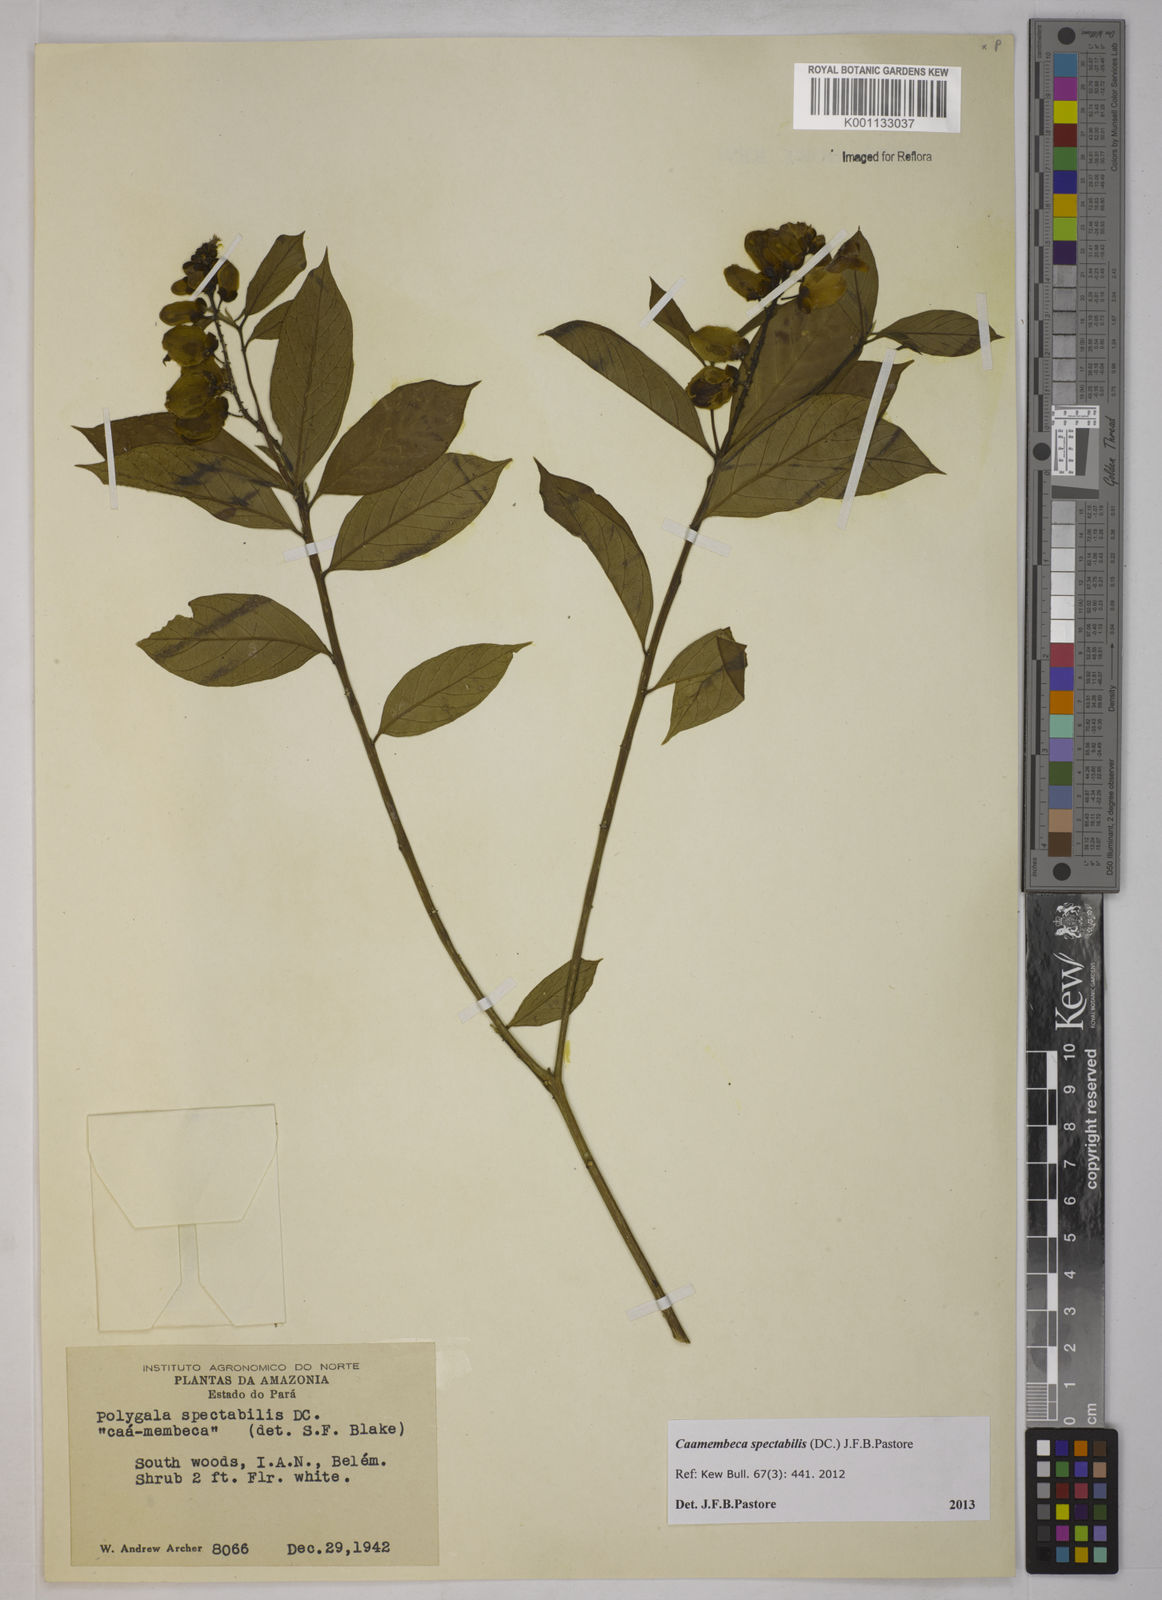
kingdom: Plantae
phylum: Tracheophyta
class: Magnoliopsida
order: Fabales
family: Polygalaceae
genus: Polygala
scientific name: Polygala
